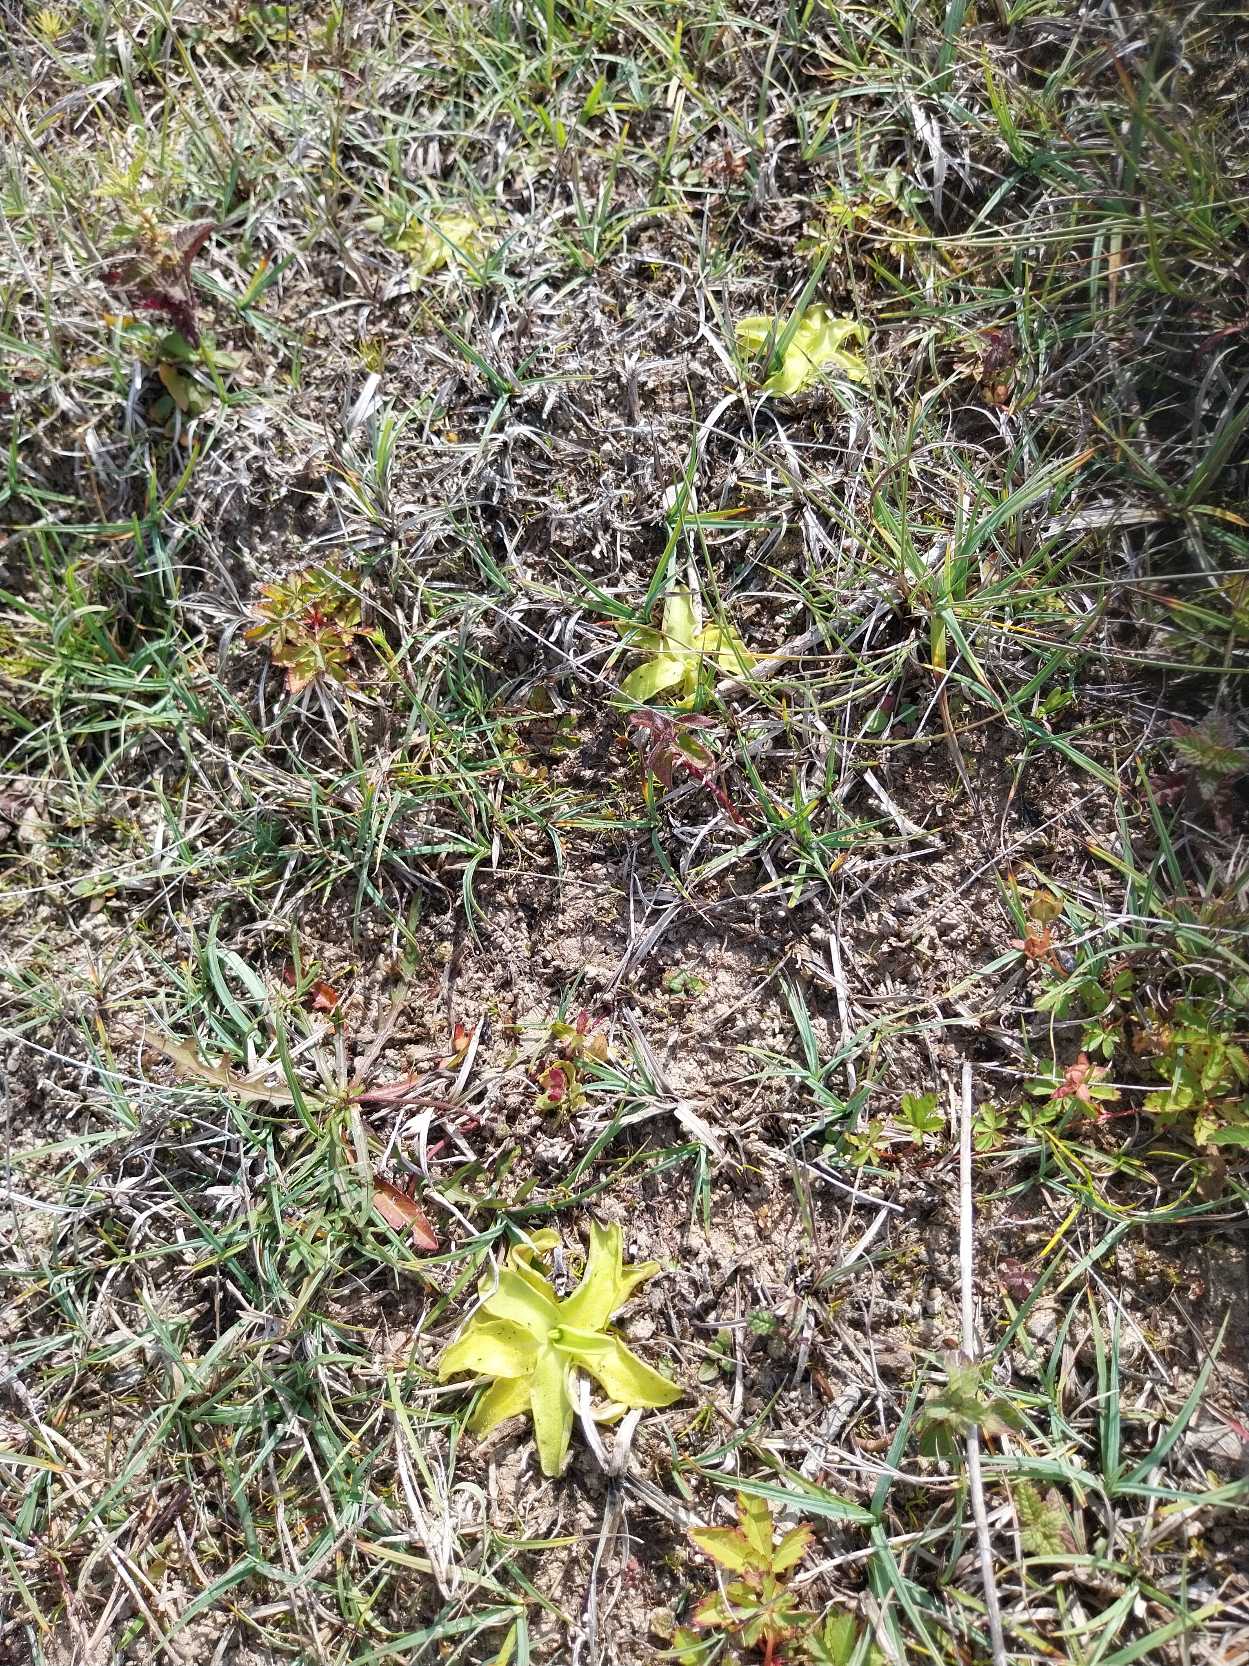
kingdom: Plantae
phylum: Tracheophyta
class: Magnoliopsida
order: Lamiales
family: Lentibulariaceae
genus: Pinguicula
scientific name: Pinguicula vulgaris
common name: Vibefedt
